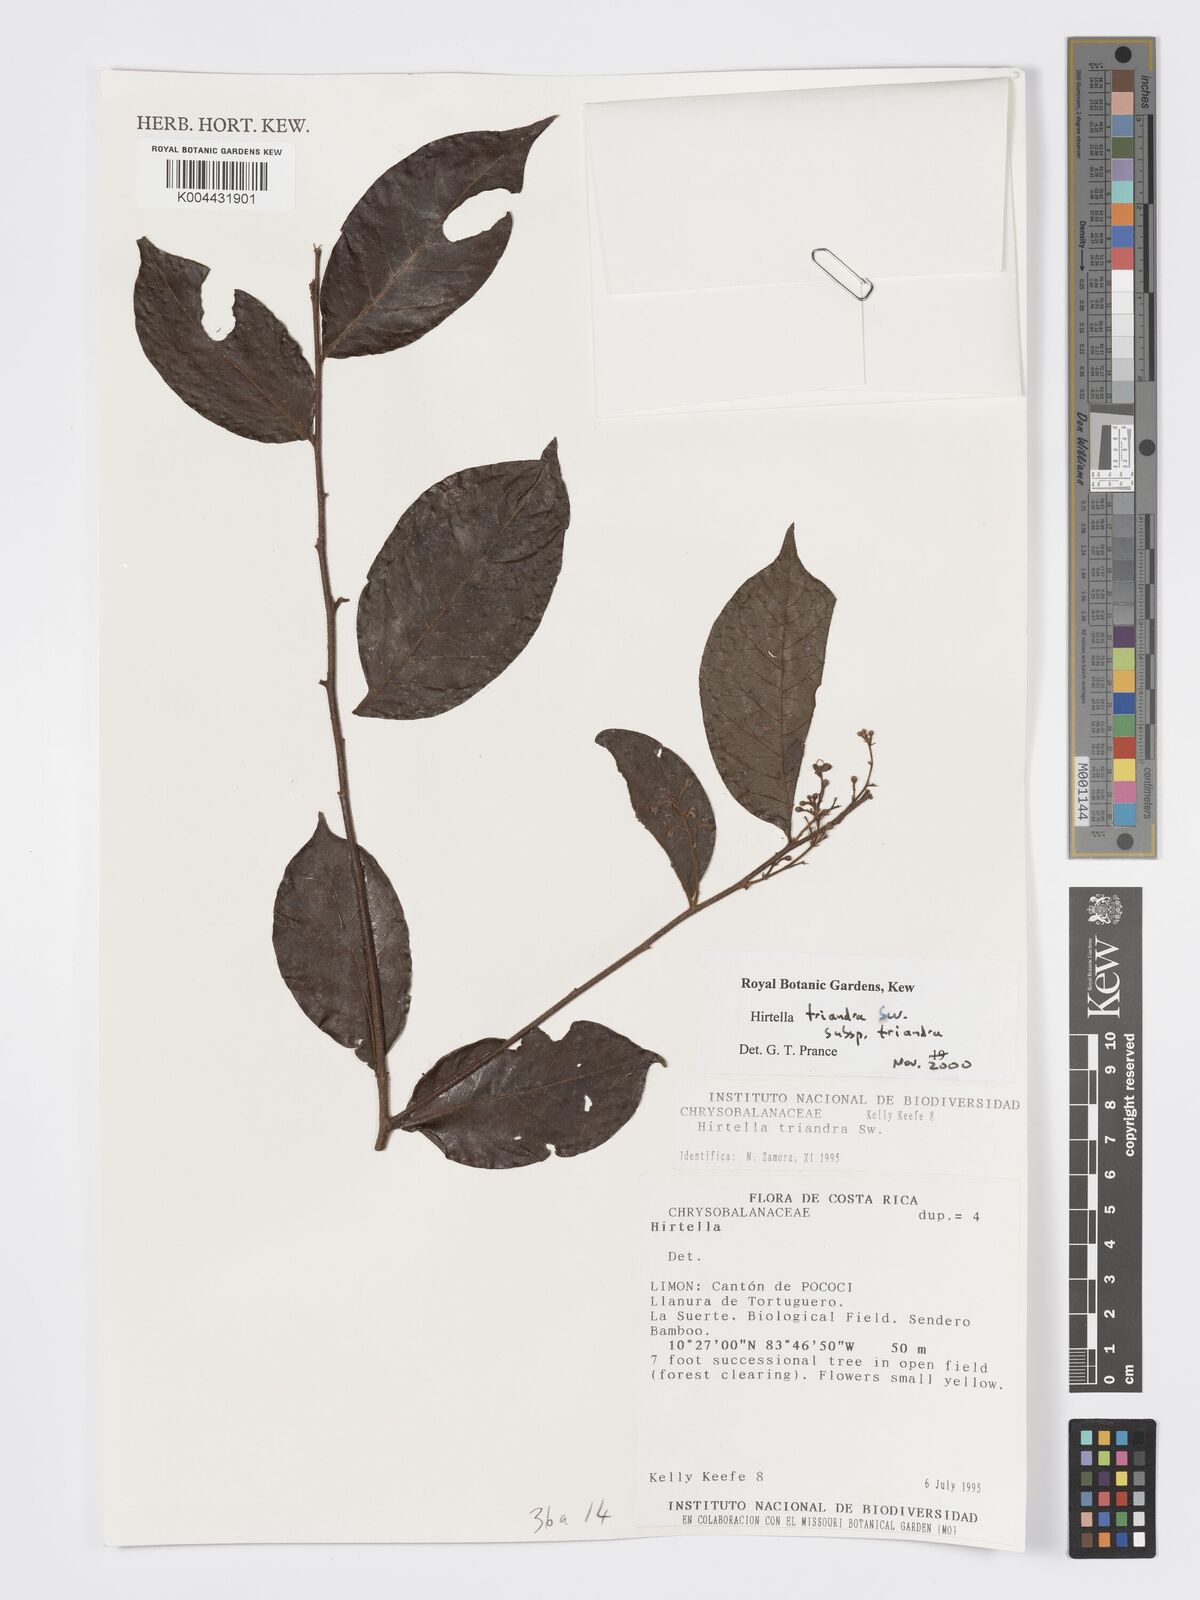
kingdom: Plantae
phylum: Tracheophyta
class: Magnoliopsida
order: Malpighiales
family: Chrysobalanaceae
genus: Hirtella
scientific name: Hirtella triandra
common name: Hairy plum
